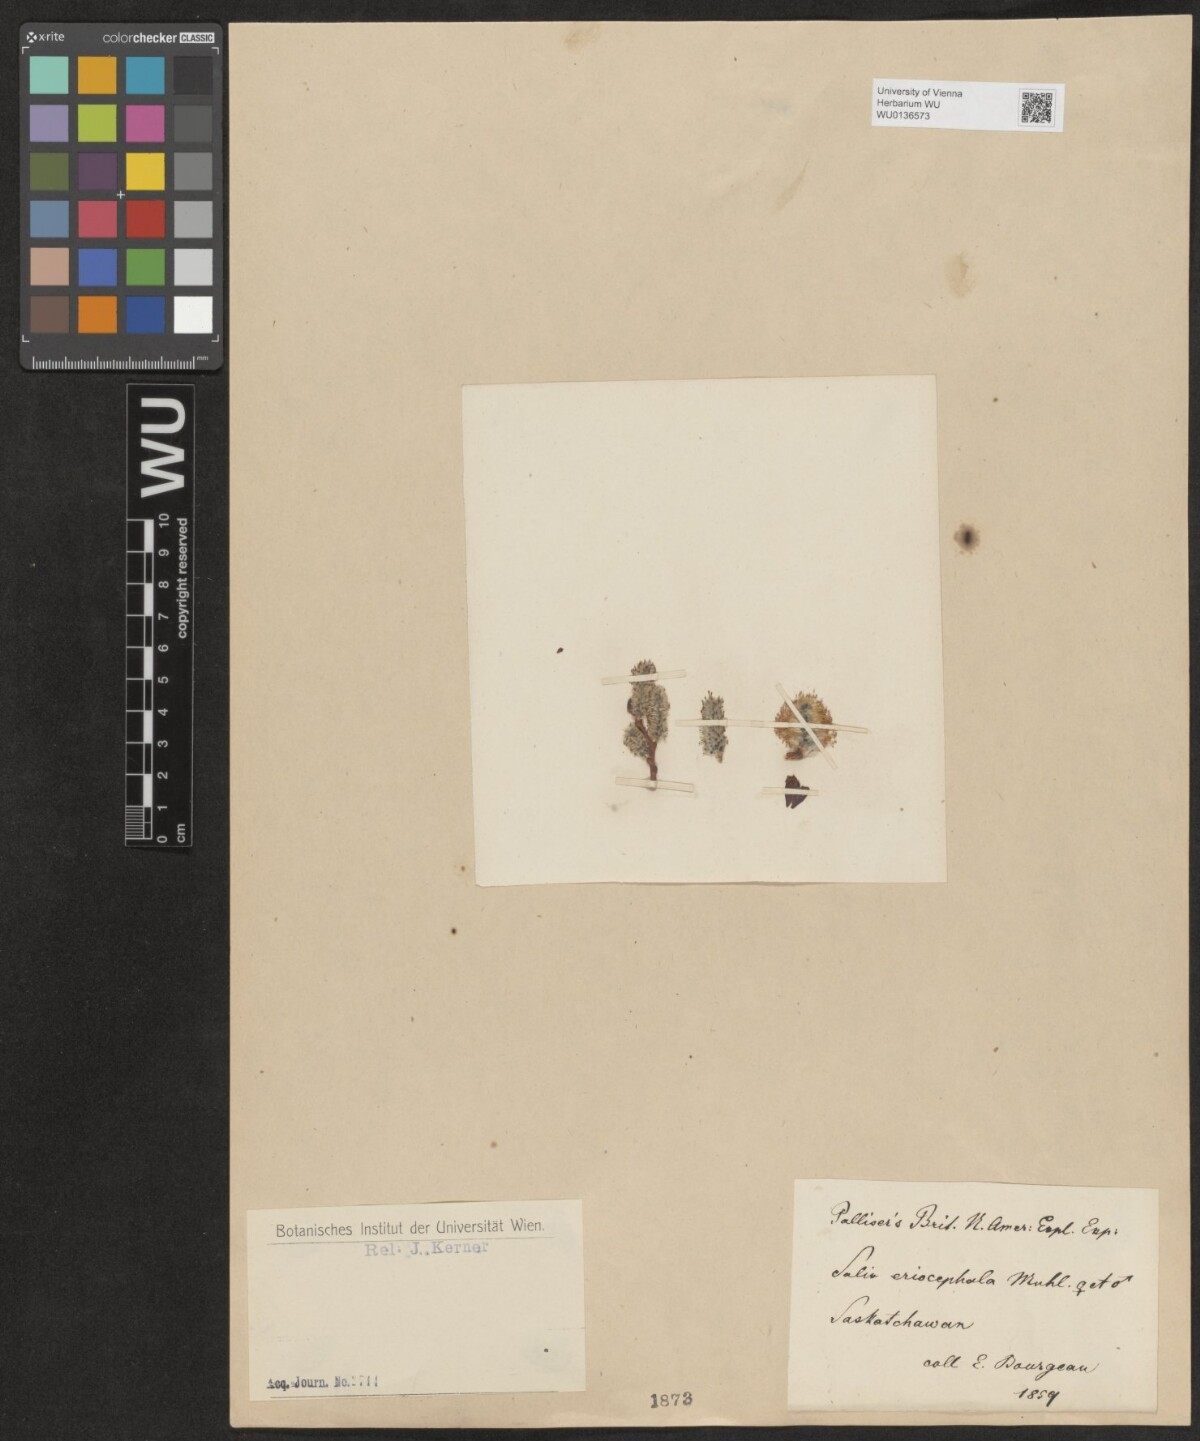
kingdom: Plantae
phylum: Tracheophyta
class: Magnoliopsida
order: Malpighiales
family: Salicaceae
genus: Salix
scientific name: Salix eriocephala
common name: Heart-leaved willow
